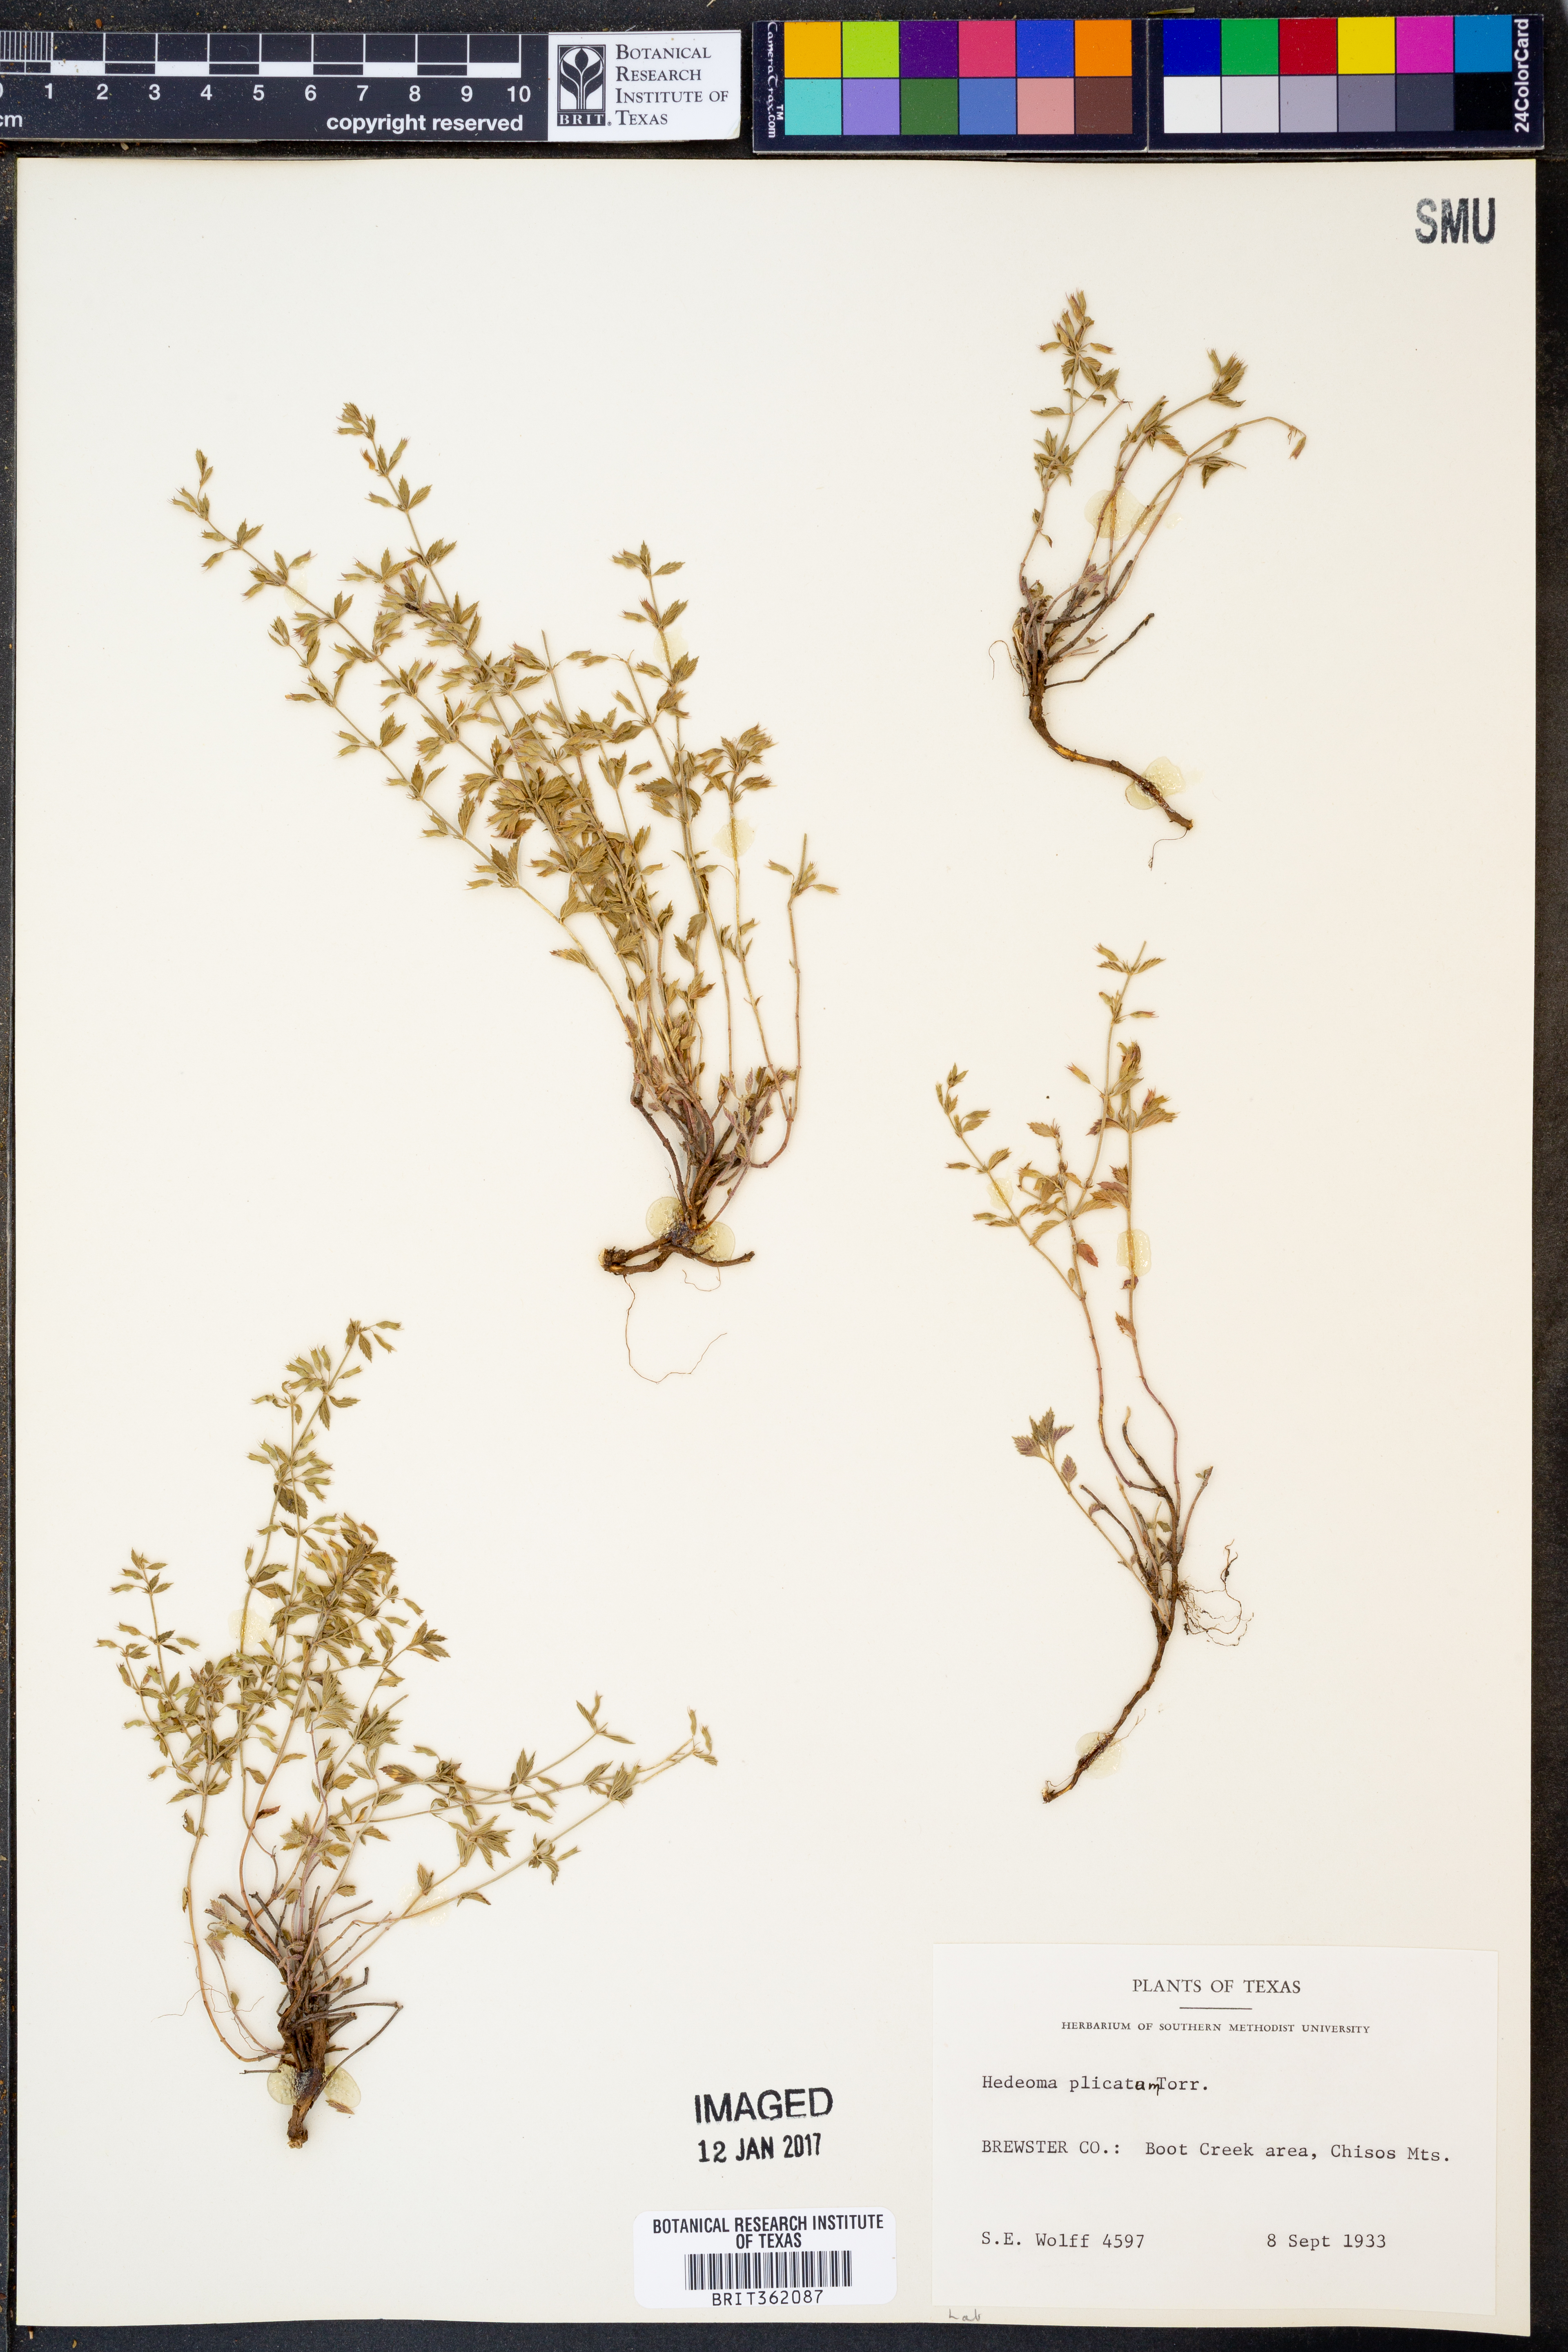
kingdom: Plantae
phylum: Tracheophyta
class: Magnoliopsida
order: Lamiales
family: Lamiaceae
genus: Hedeoma
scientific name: Hedeoma plicata
